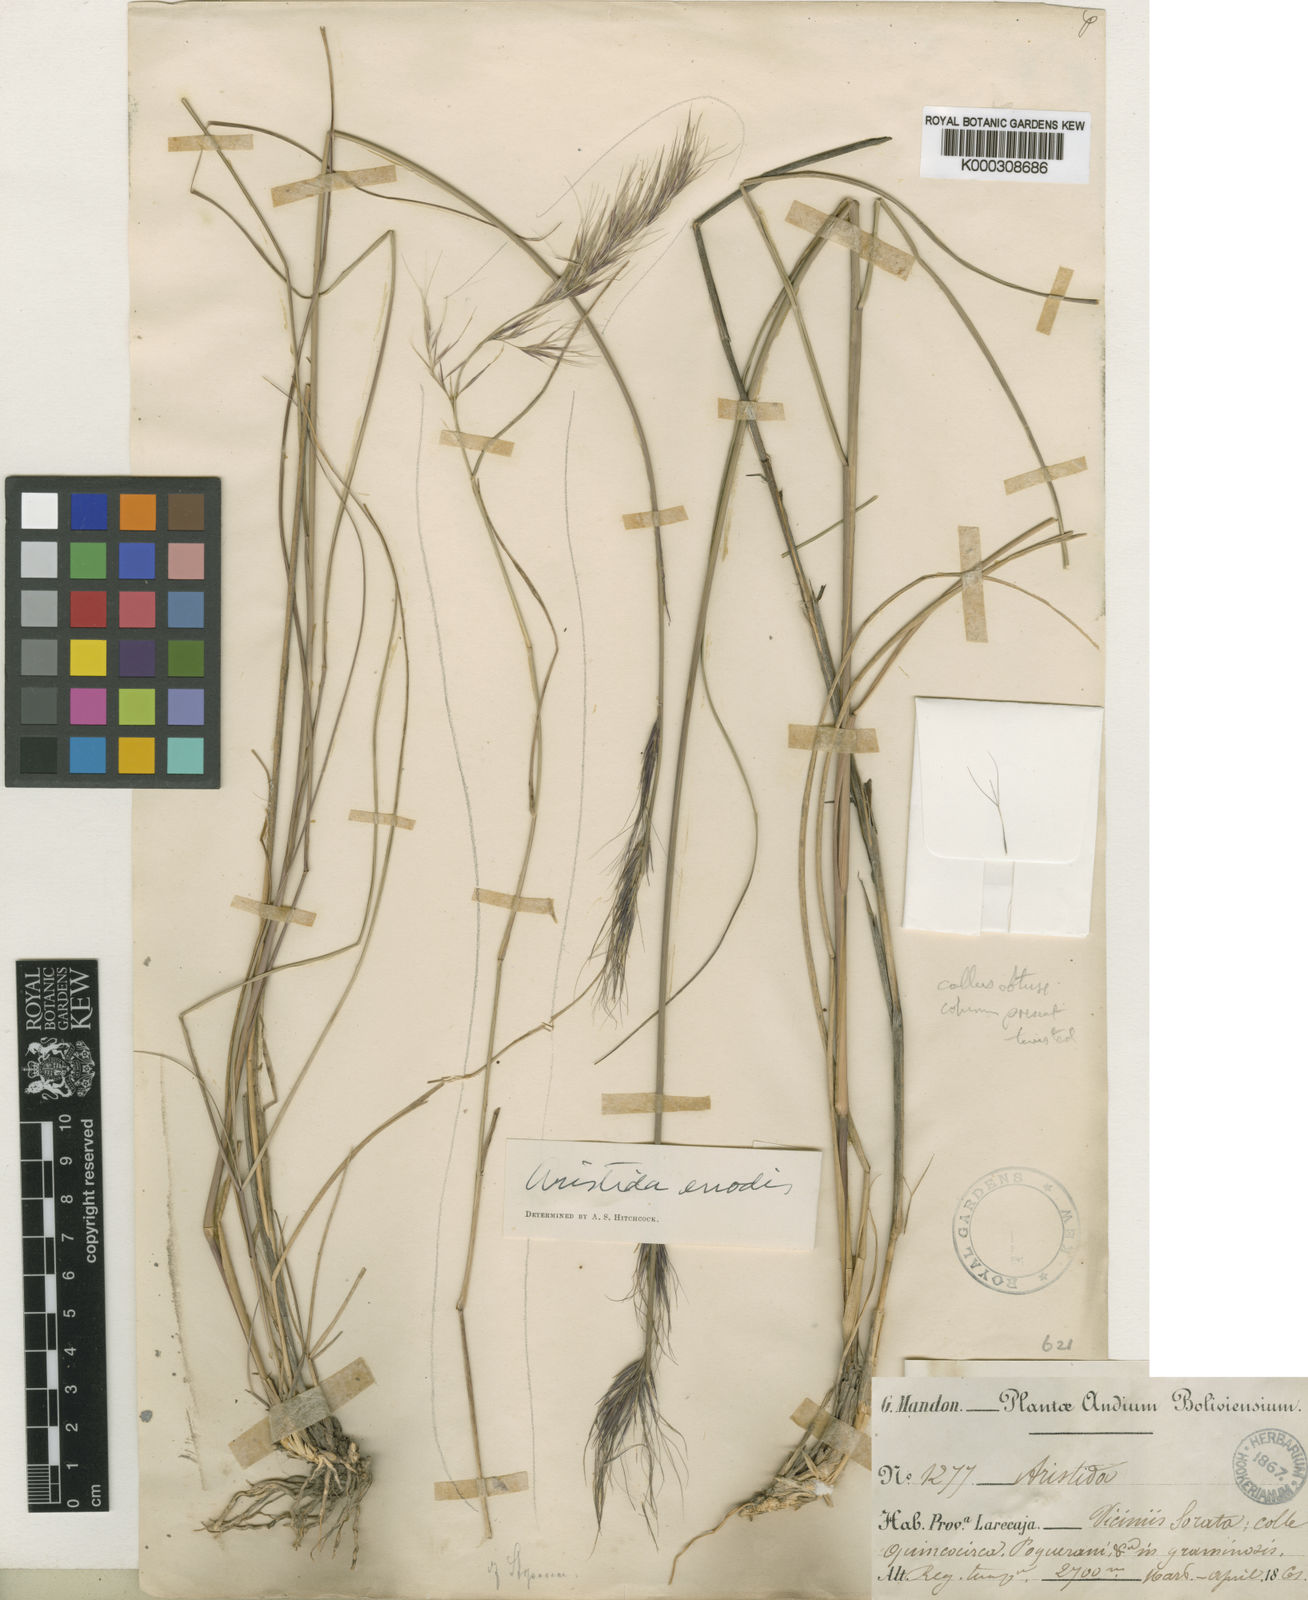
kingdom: Plantae
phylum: Tracheophyta
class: Liliopsida
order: Poales
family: Poaceae
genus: Aristida
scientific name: Aristida mandoniana
